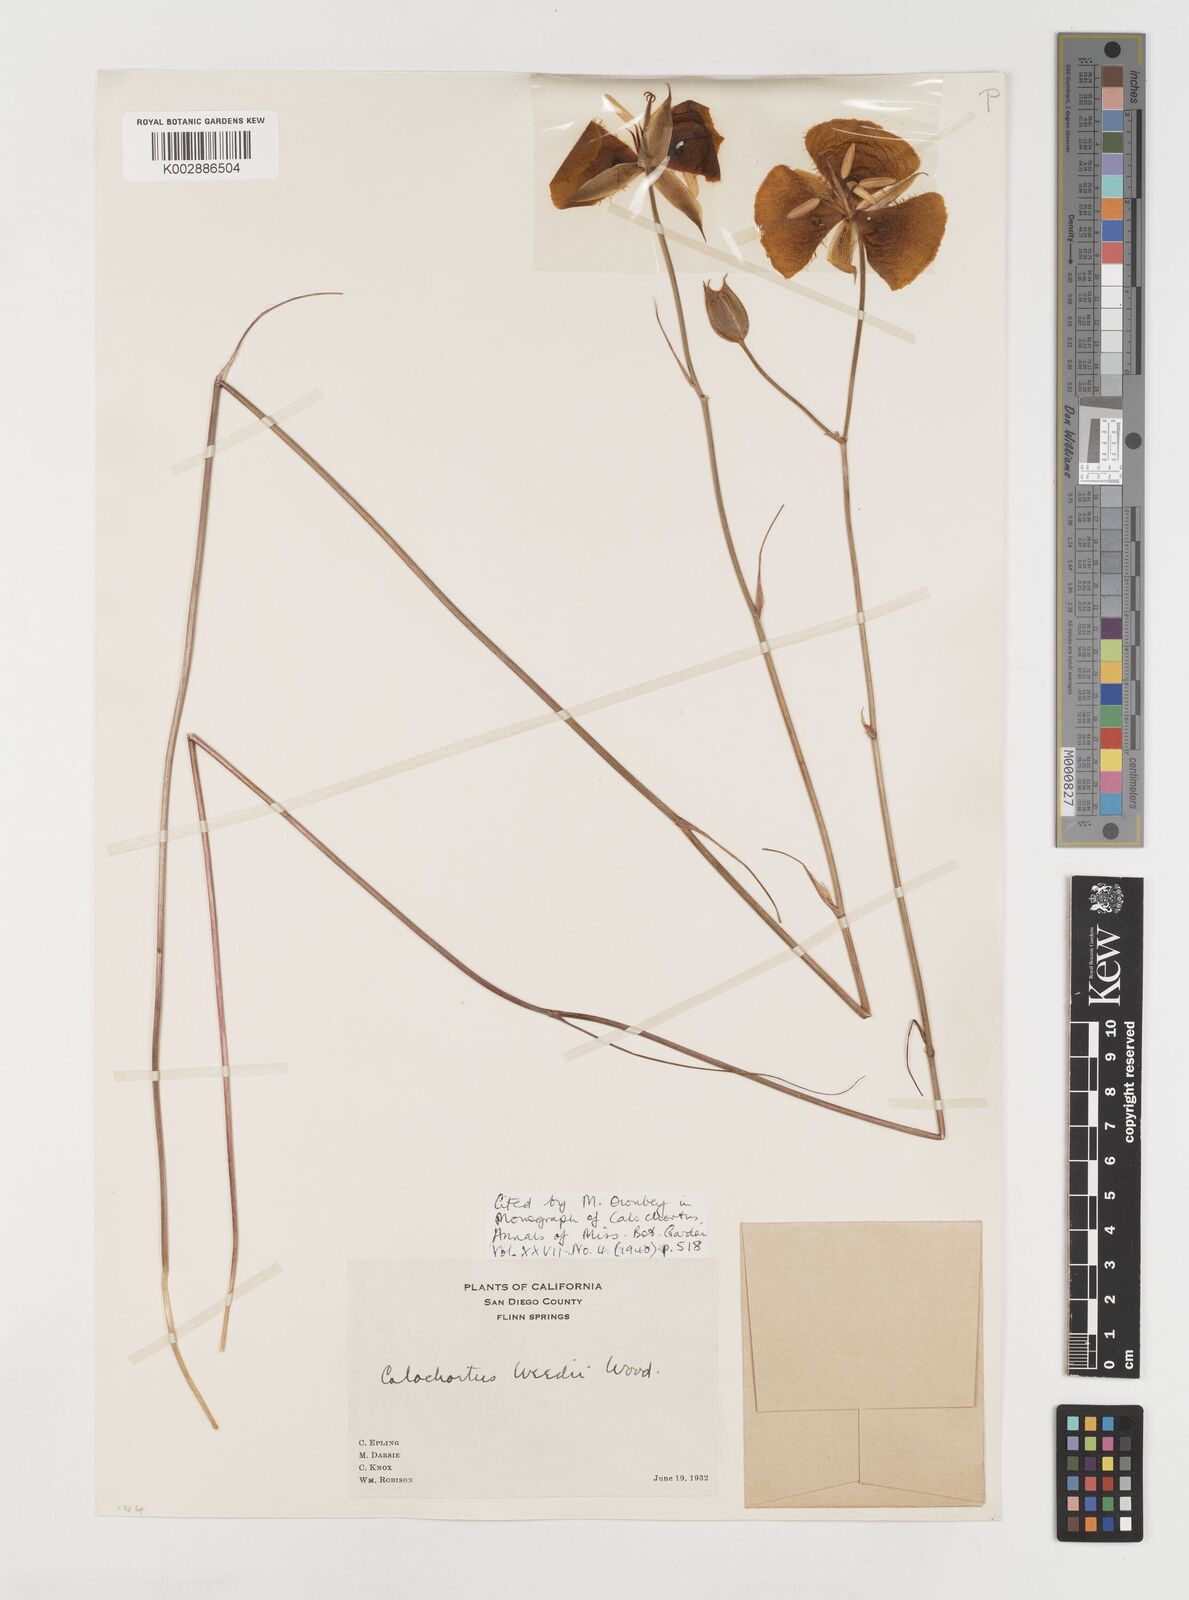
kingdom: Plantae
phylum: Tracheophyta
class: Liliopsida
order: Liliales
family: Liliaceae
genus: Calochortus
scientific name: Calochortus weedii
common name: Weed's mariposa-lily
